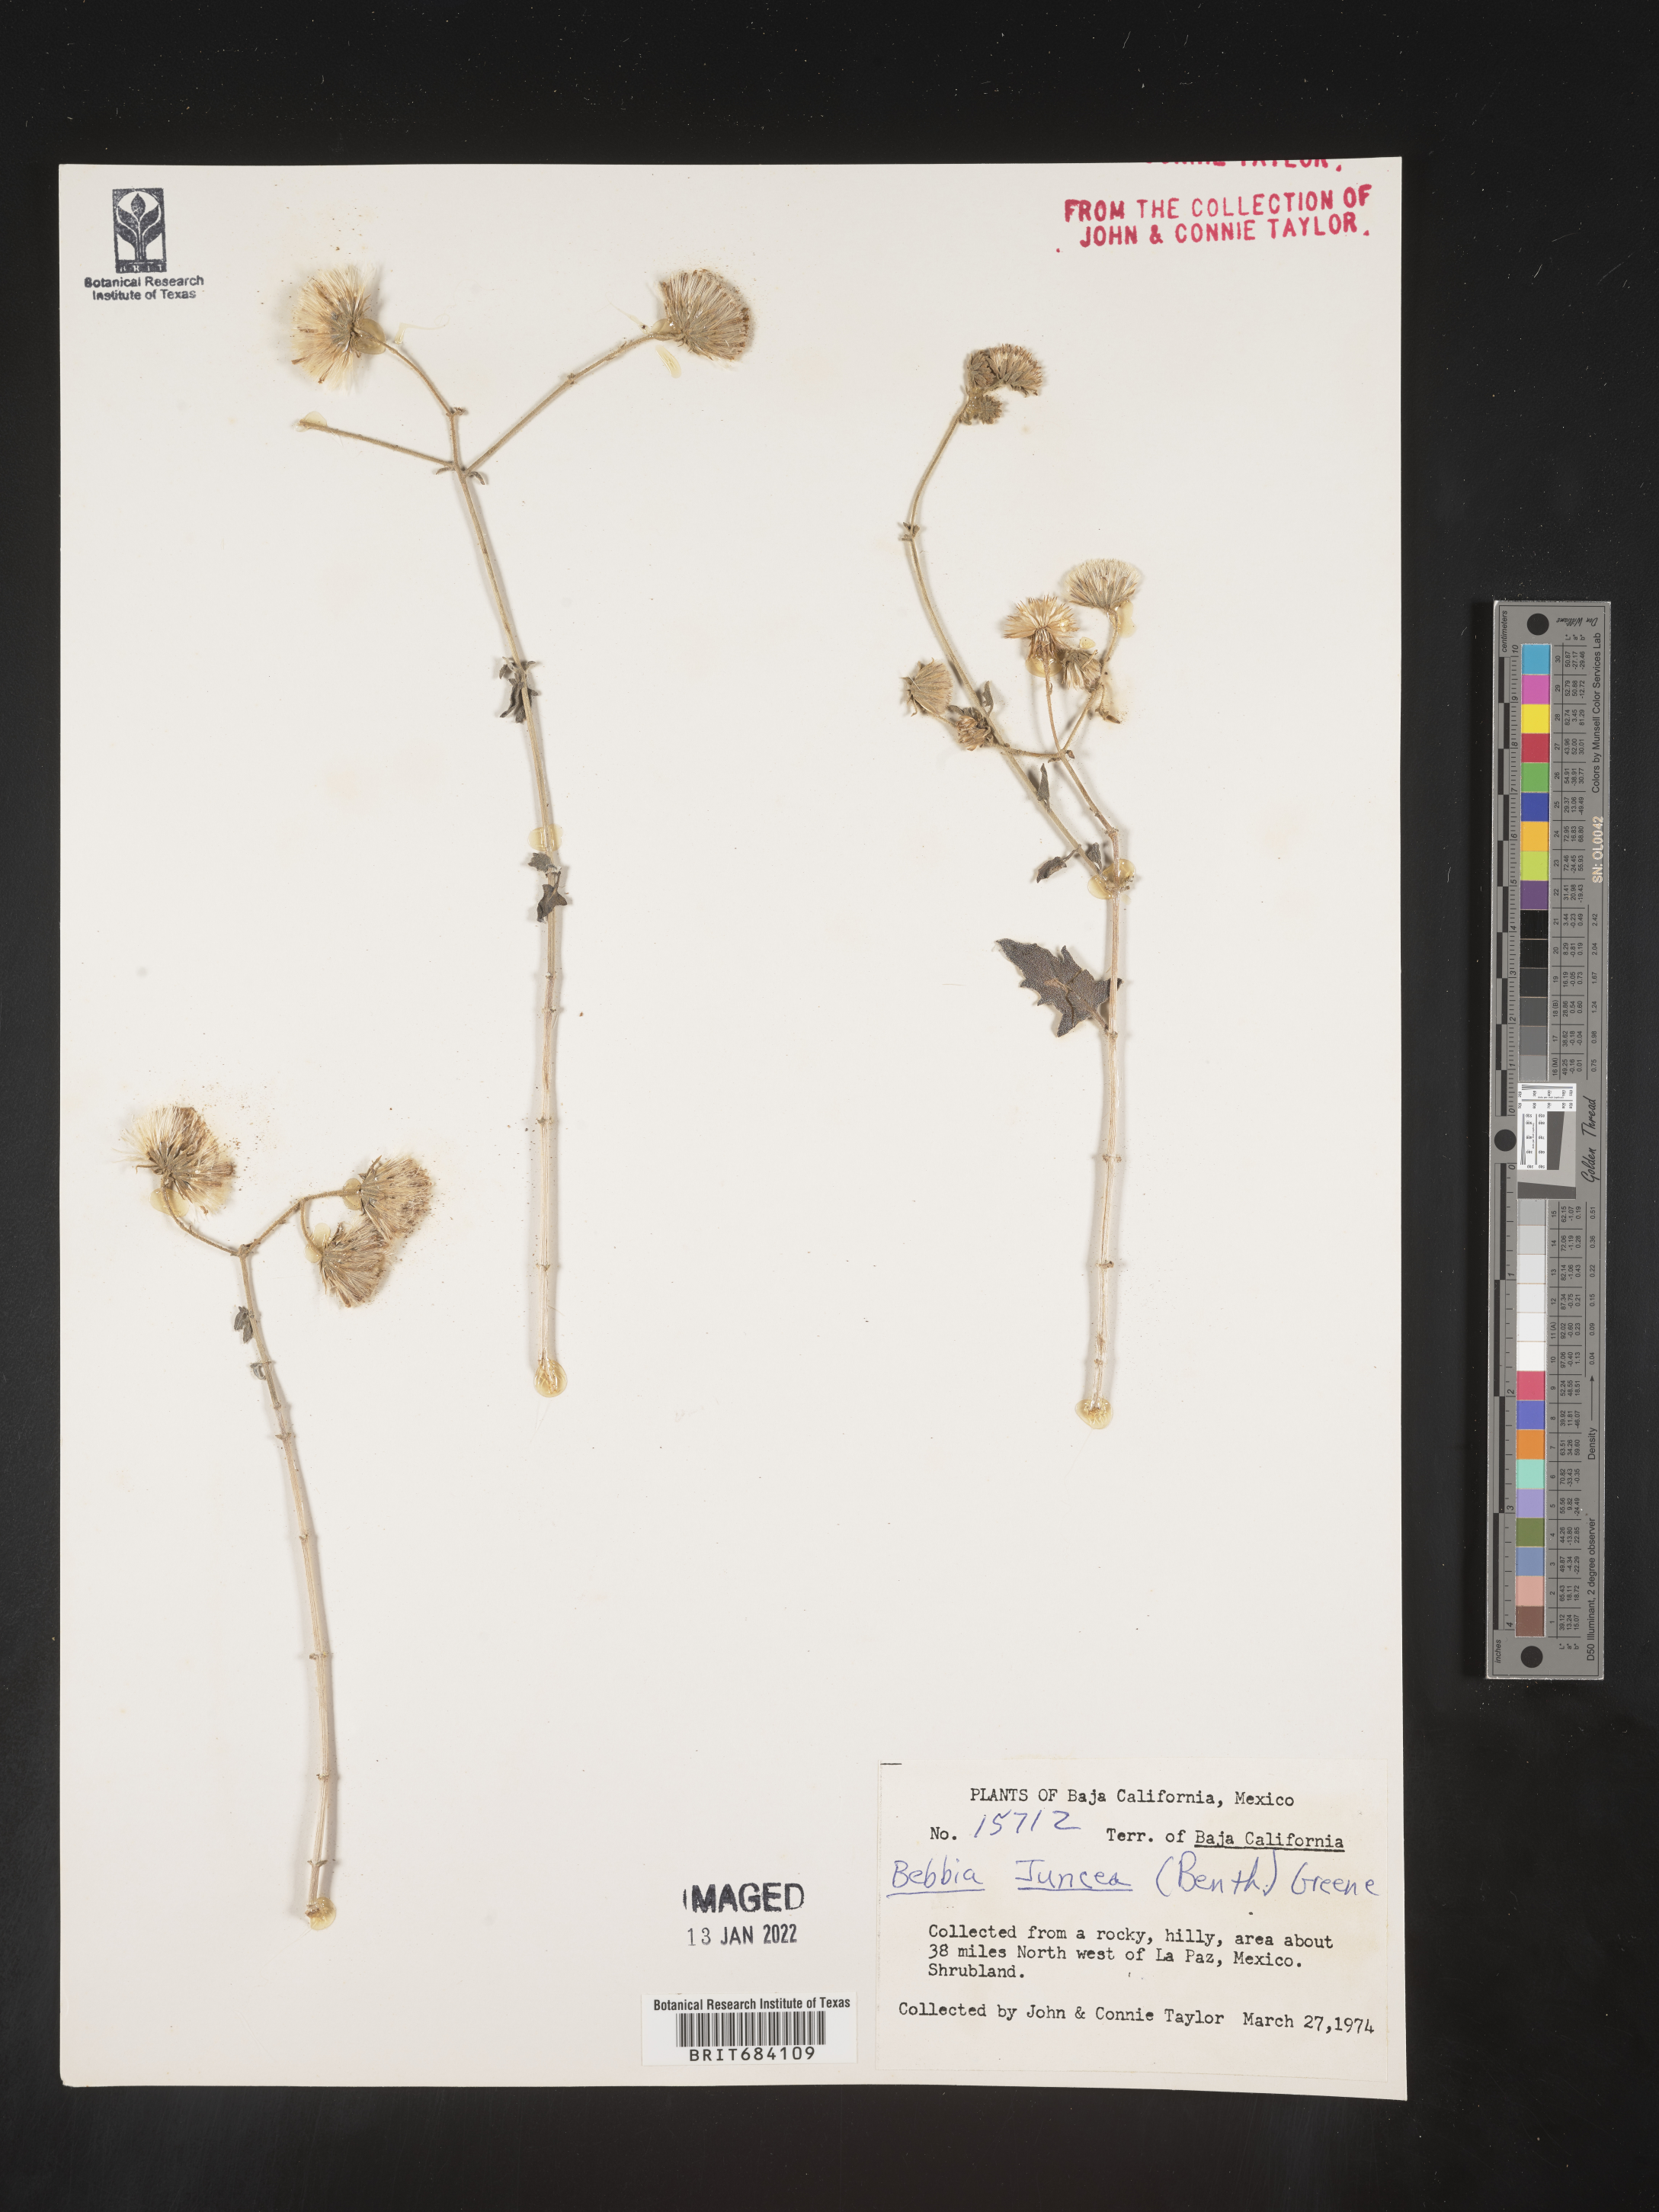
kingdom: Plantae
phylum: Tracheophyta
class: Magnoliopsida
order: Asterales
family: Asteraceae
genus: Bebbia
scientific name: Bebbia
